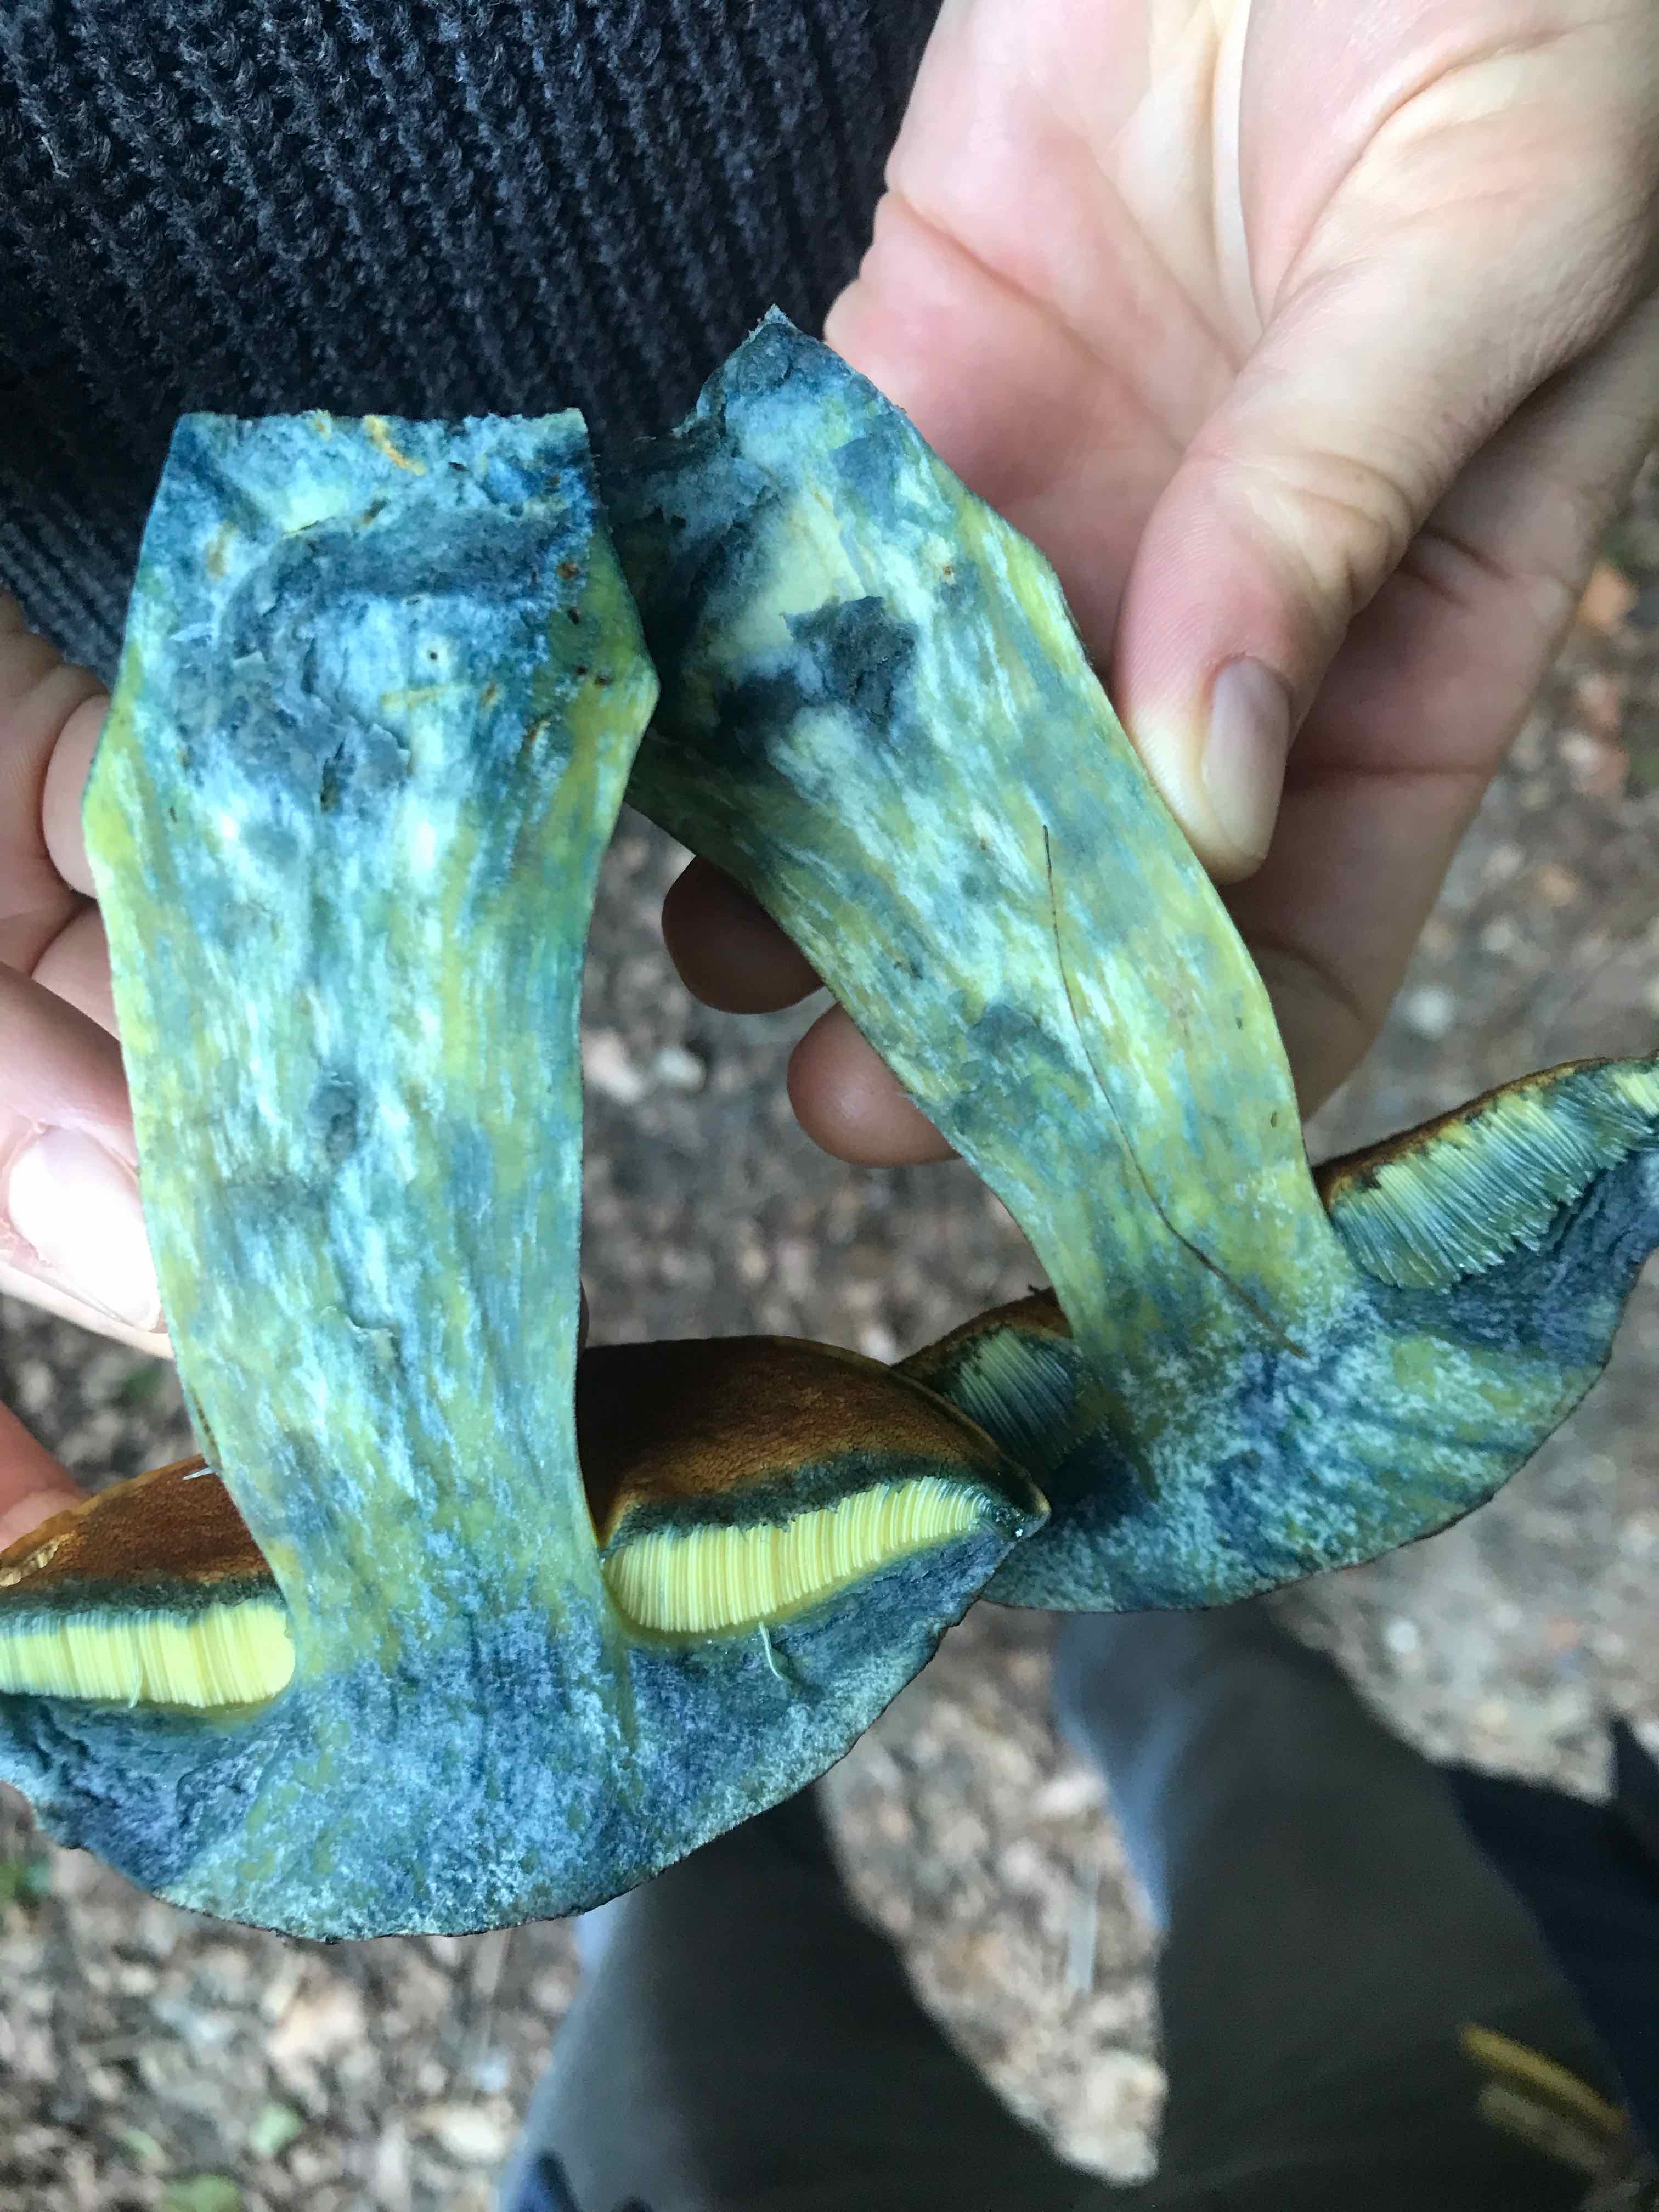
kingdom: Fungi
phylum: Basidiomycota
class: Agaricomycetes
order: Boletales
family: Boletaceae
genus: Neoboletus
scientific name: Neoboletus praestigiator
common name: gul indigorørhat
